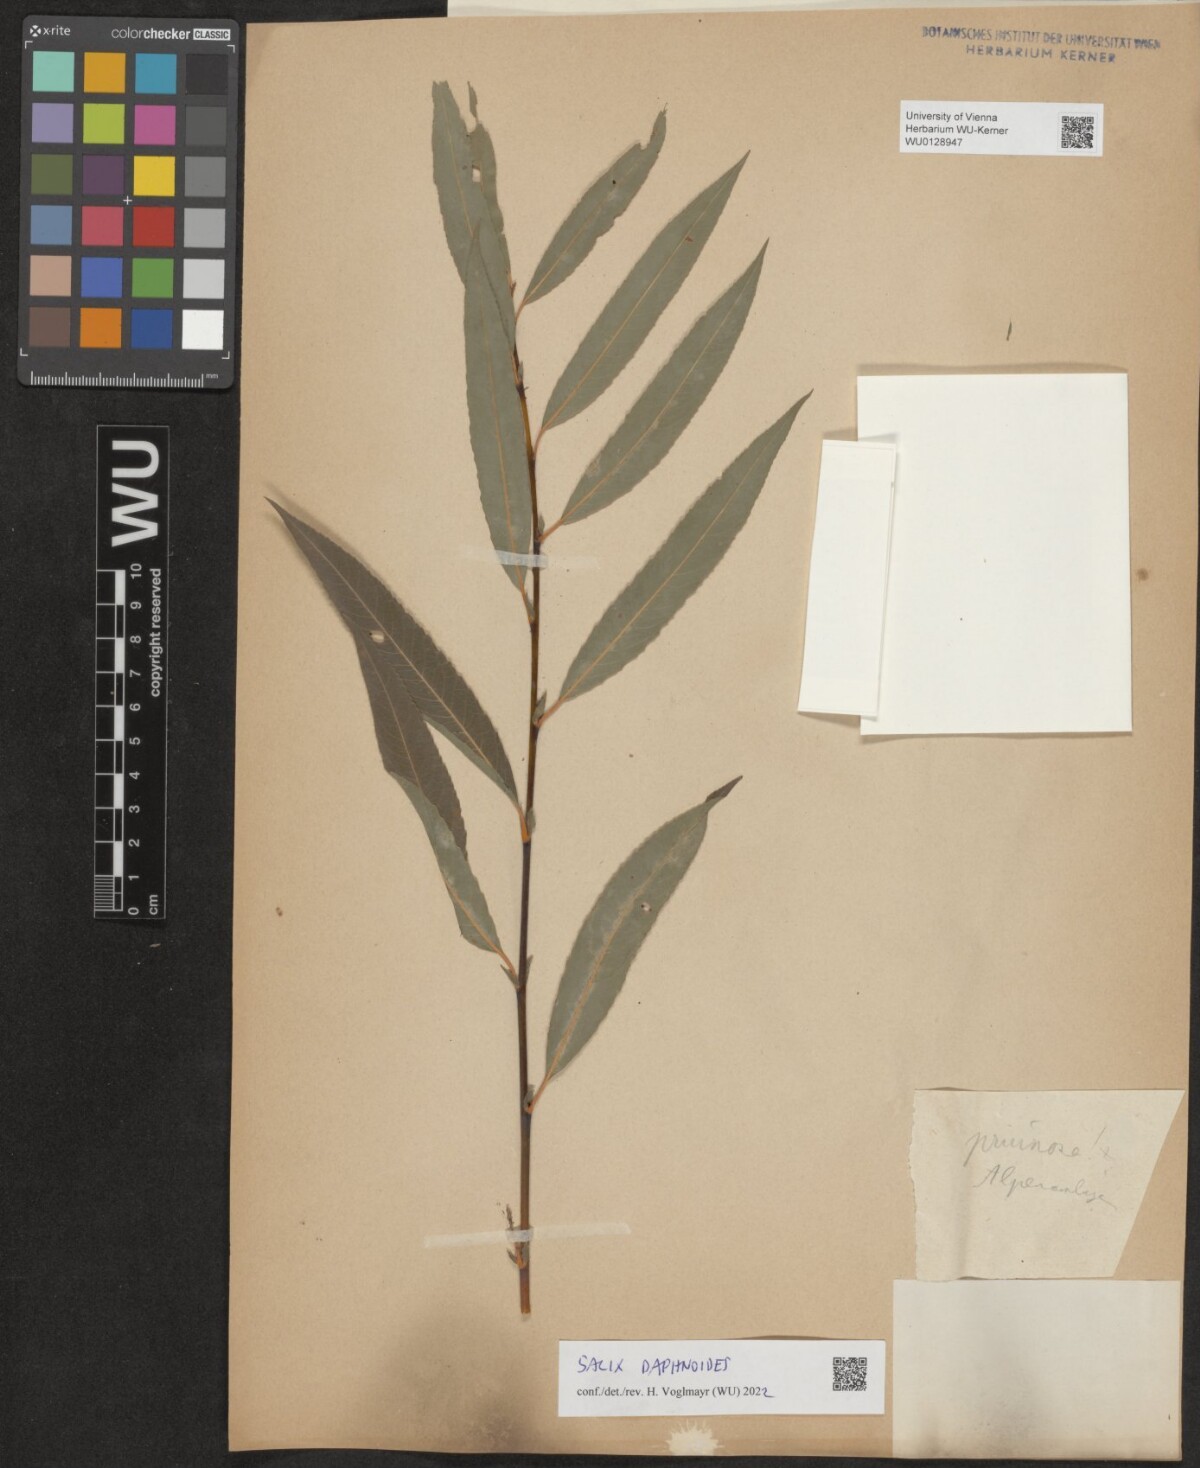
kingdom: Plantae
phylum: Tracheophyta
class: Magnoliopsida
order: Malpighiales
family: Salicaceae
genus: Salix
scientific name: Salix daphnoides
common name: European violet-willow
